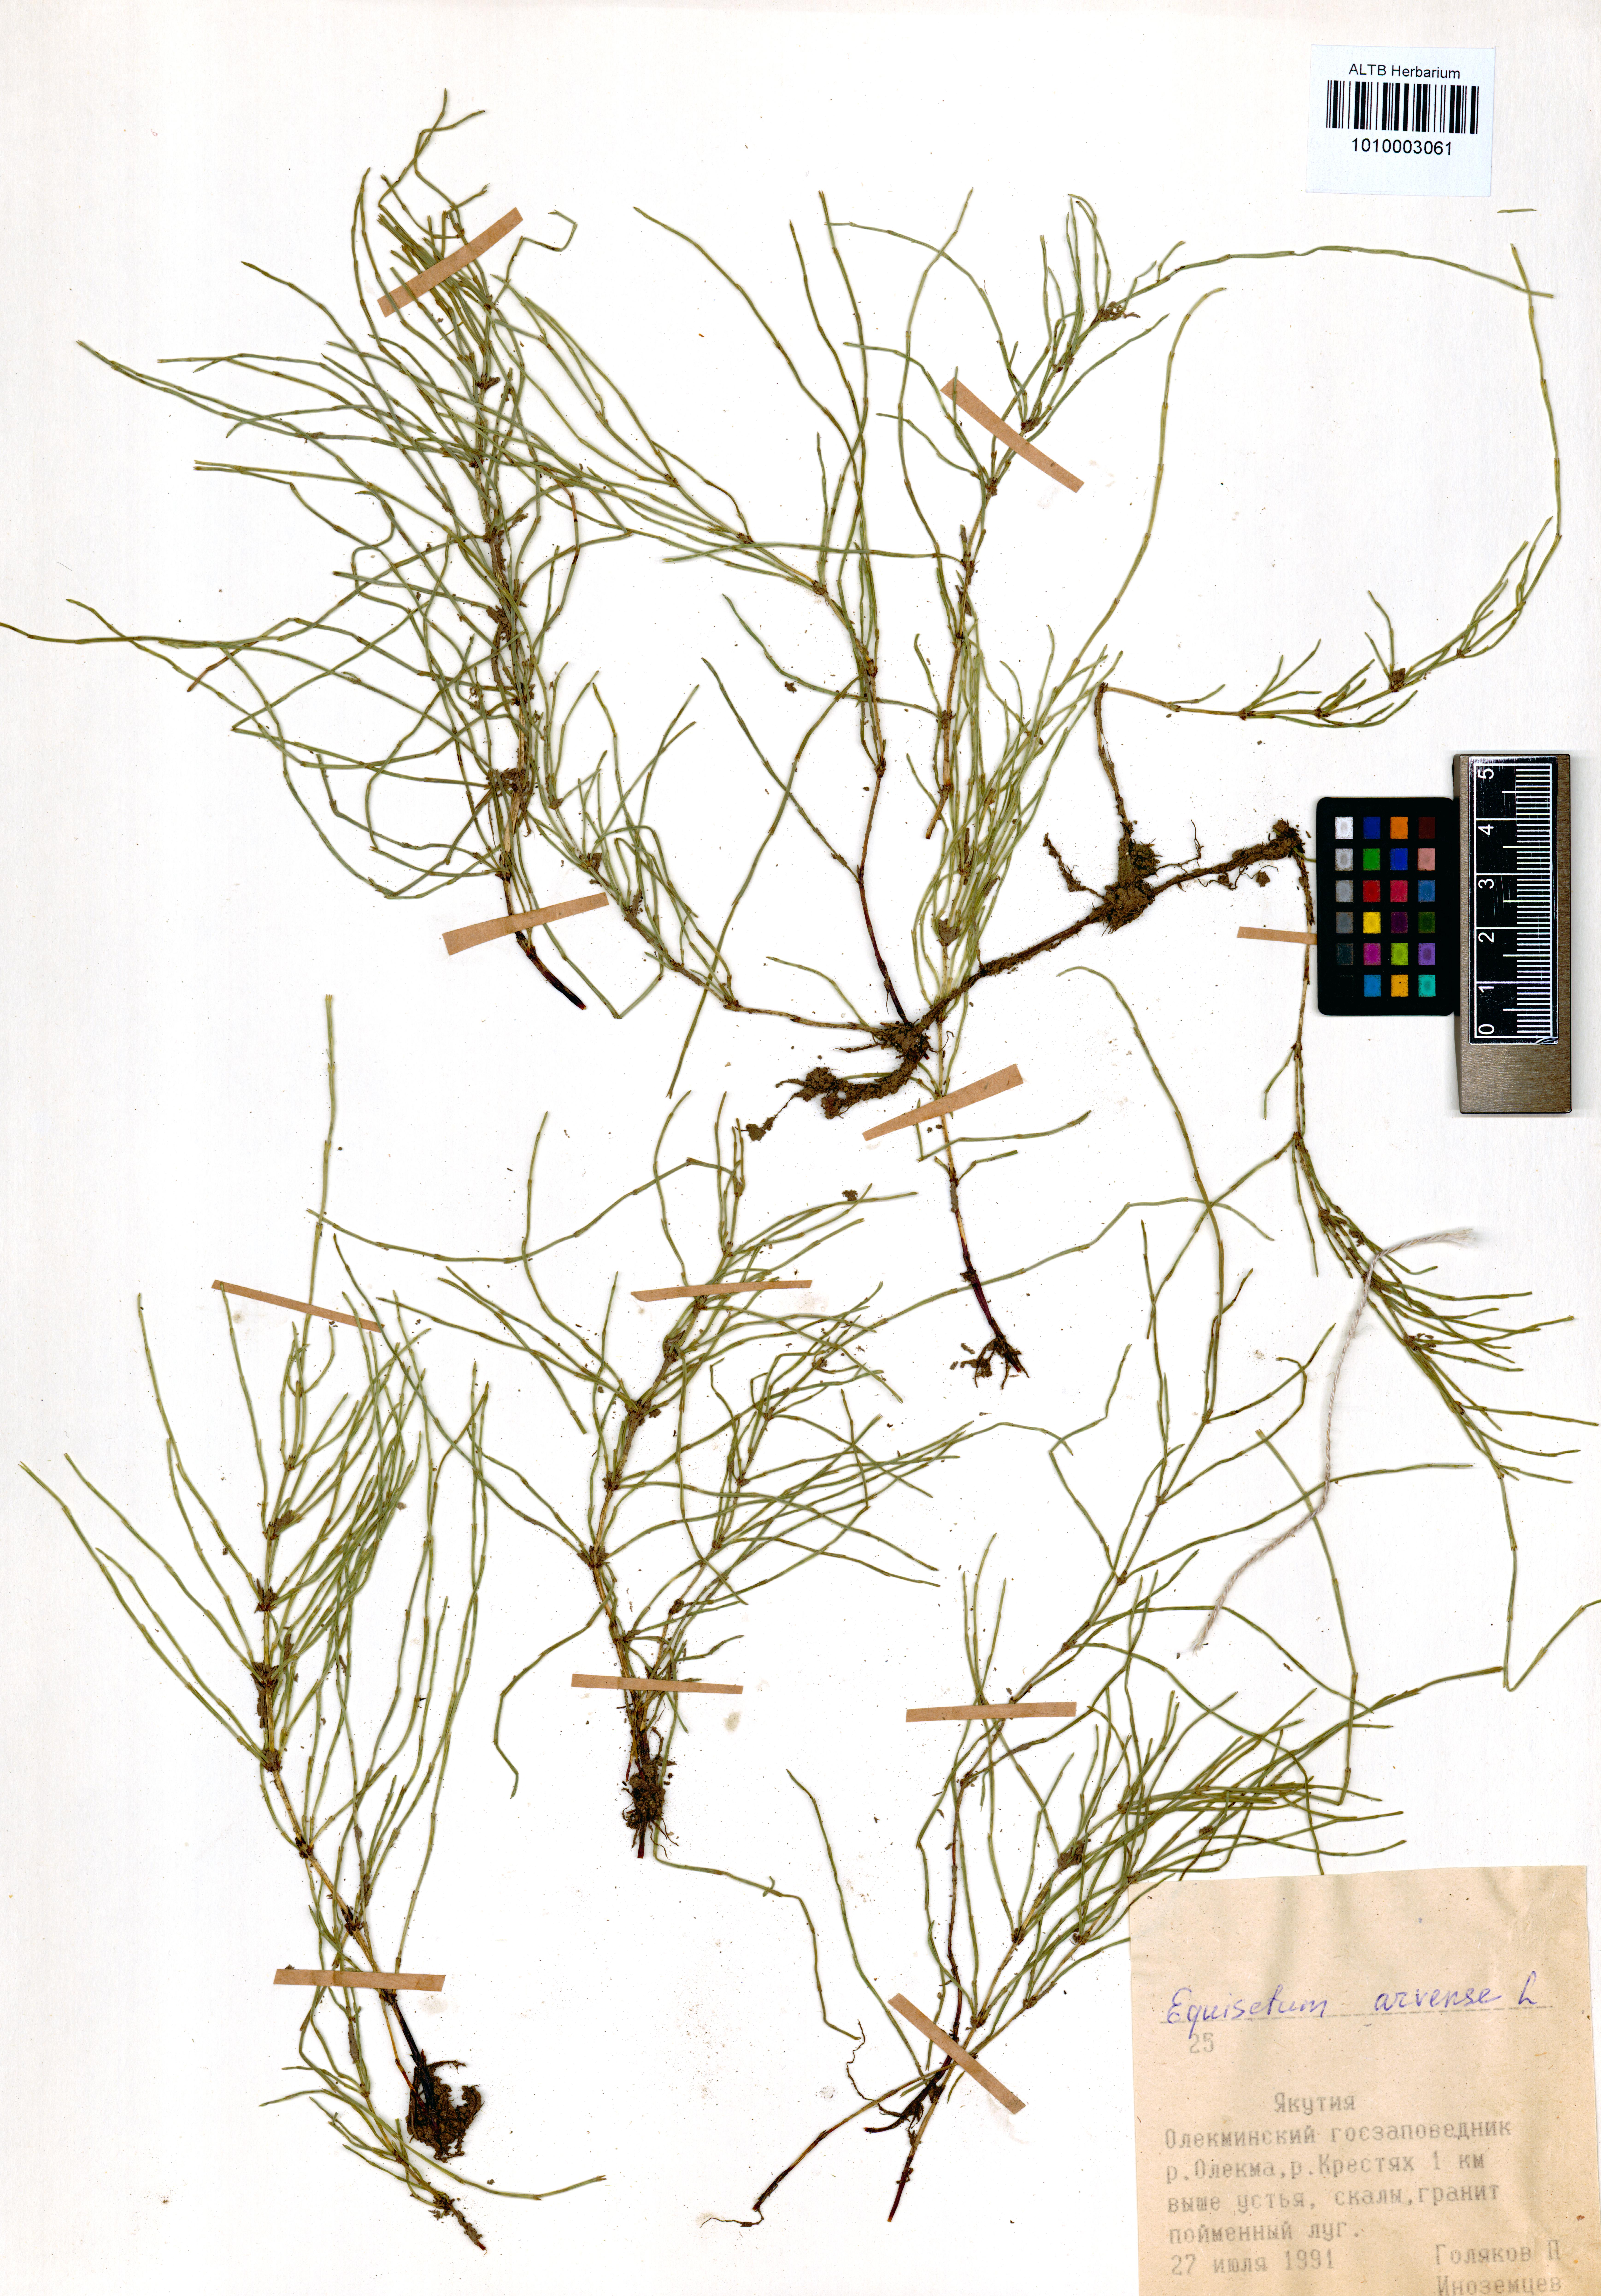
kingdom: Plantae
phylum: Tracheophyta
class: Polypodiopsida
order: Equisetales
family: Equisetaceae
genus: Equisetum
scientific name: Equisetum arvense
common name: Field horsetail
